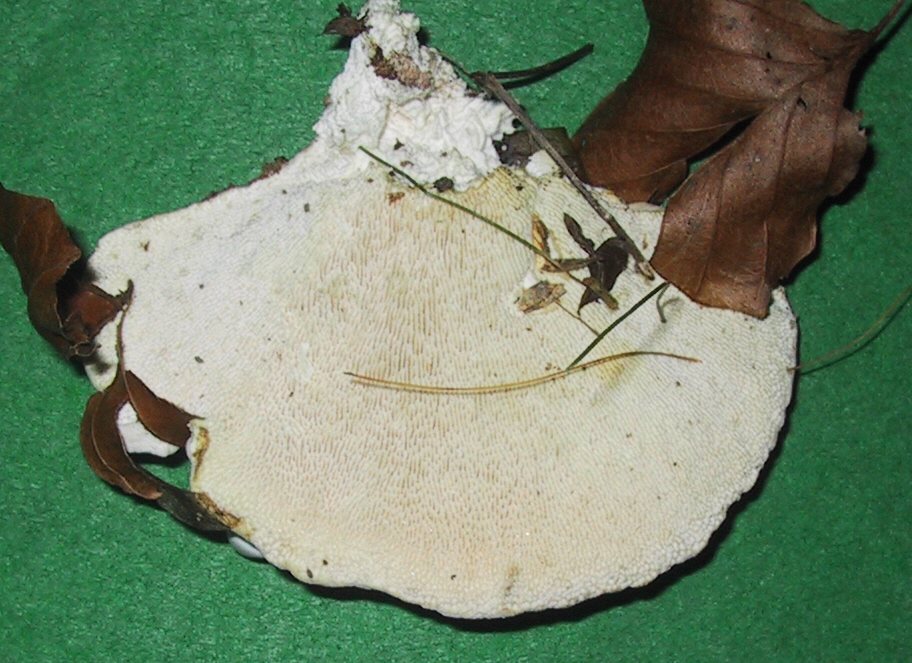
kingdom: Fungi
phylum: Basidiomycota
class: Agaricomycetes
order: Polyporales
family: Polyporaceae
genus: Trametes
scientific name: Trametes gibbosa
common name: puklet læderporesvamp
